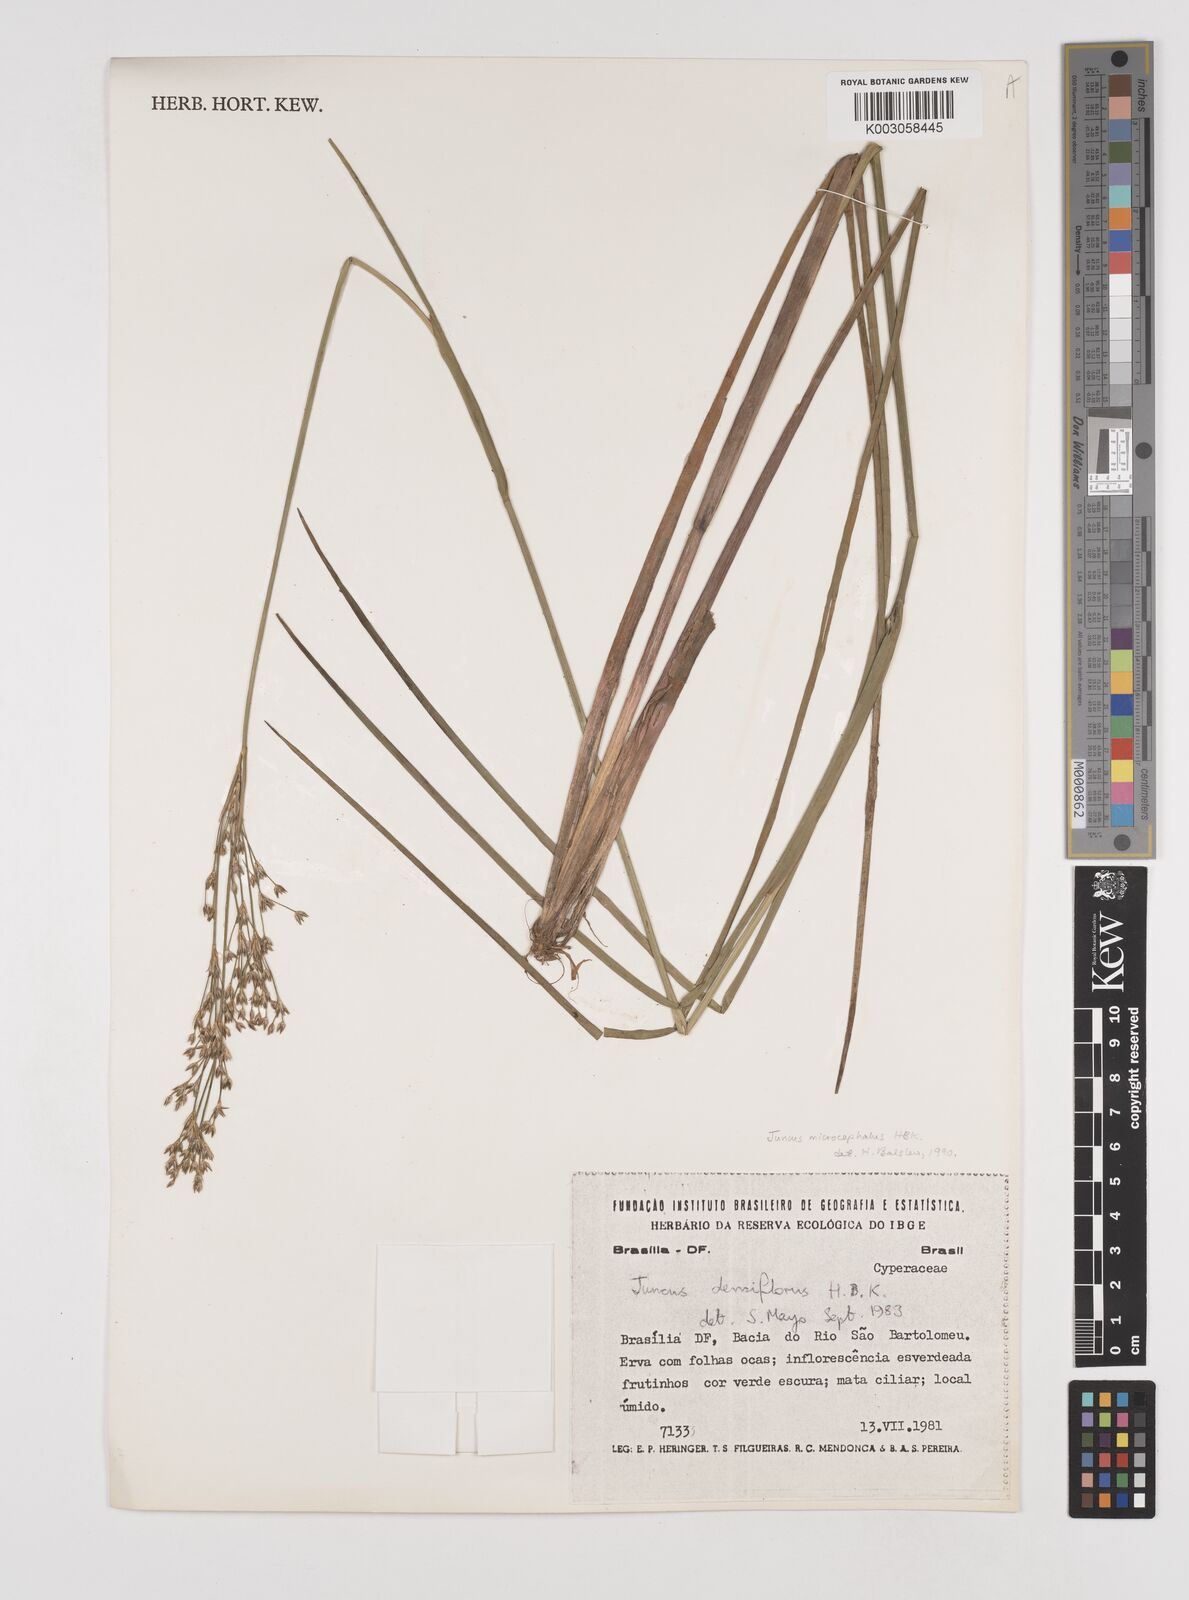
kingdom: Plantae
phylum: Tracheophyta
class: Liliopsida
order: Poales
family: Juncaceae
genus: Juncus
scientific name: Juncus microcephalus
